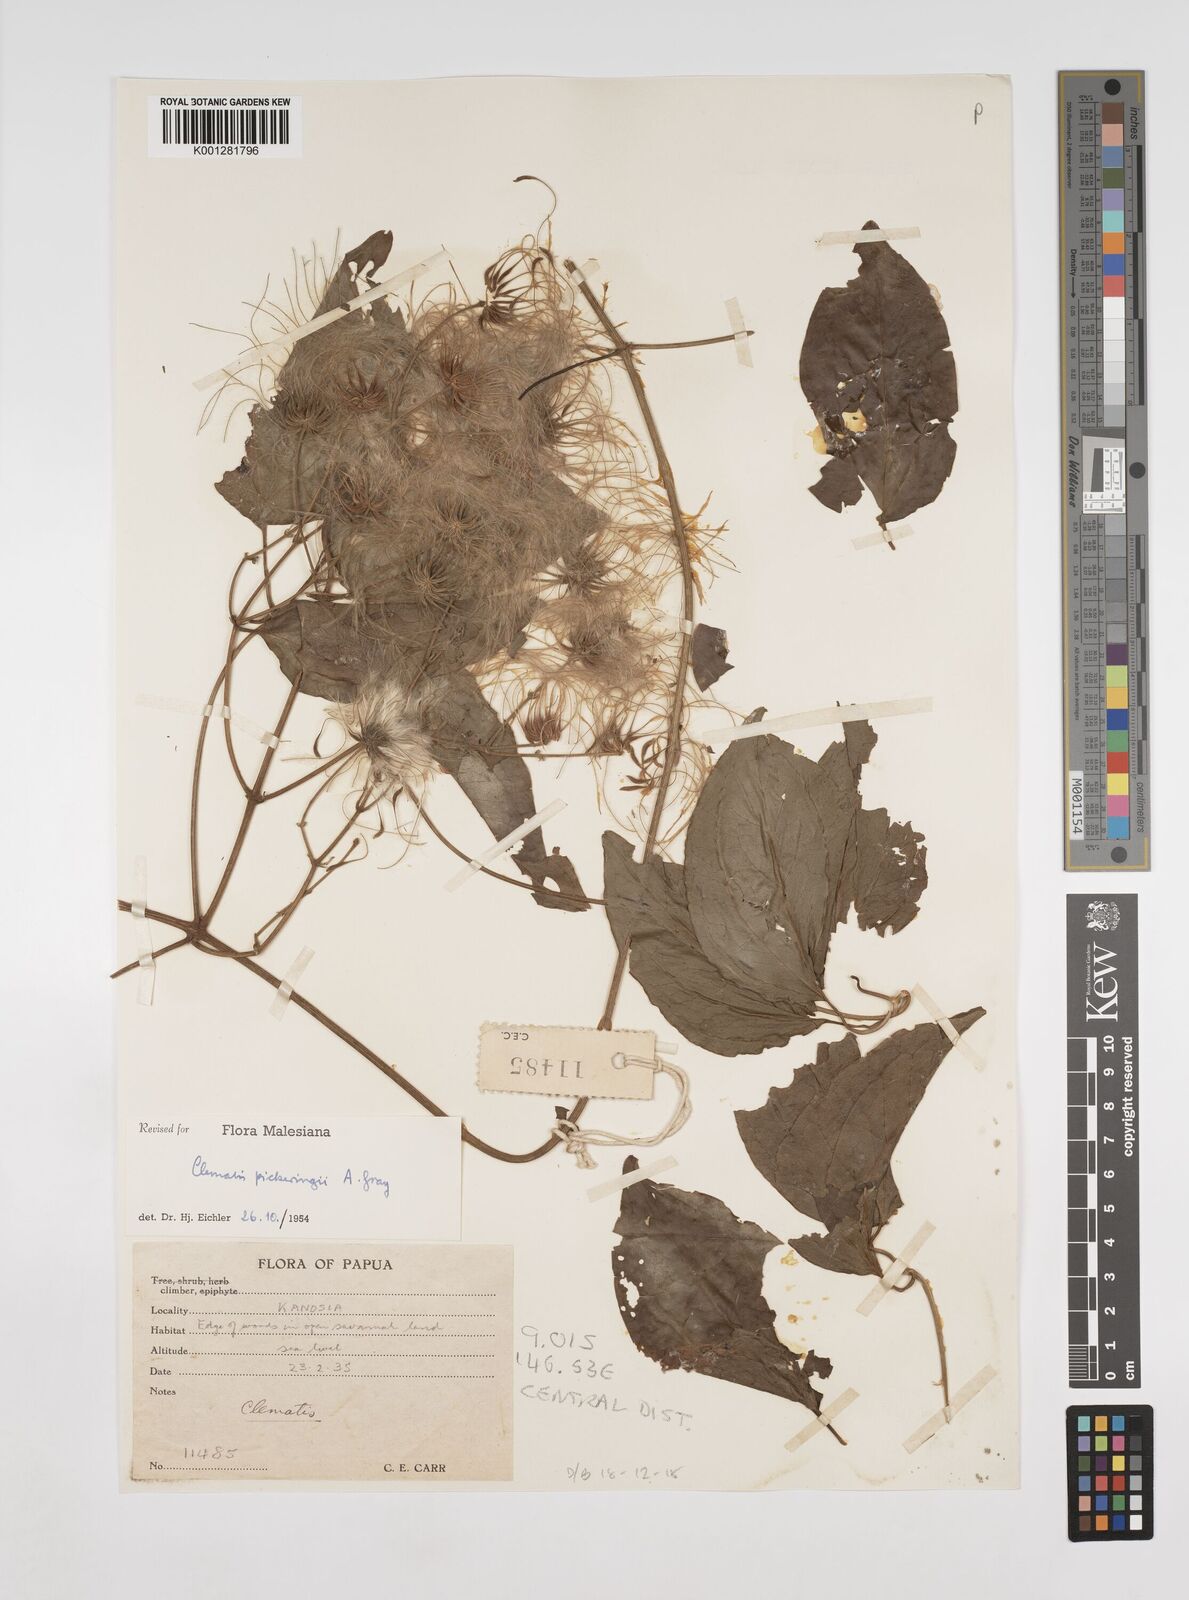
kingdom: Plantae
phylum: Tracheophyta
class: Magnoliopsida
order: Ranunculales
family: Ranunculaceae
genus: Clematis
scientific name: Clematis pickeringii
